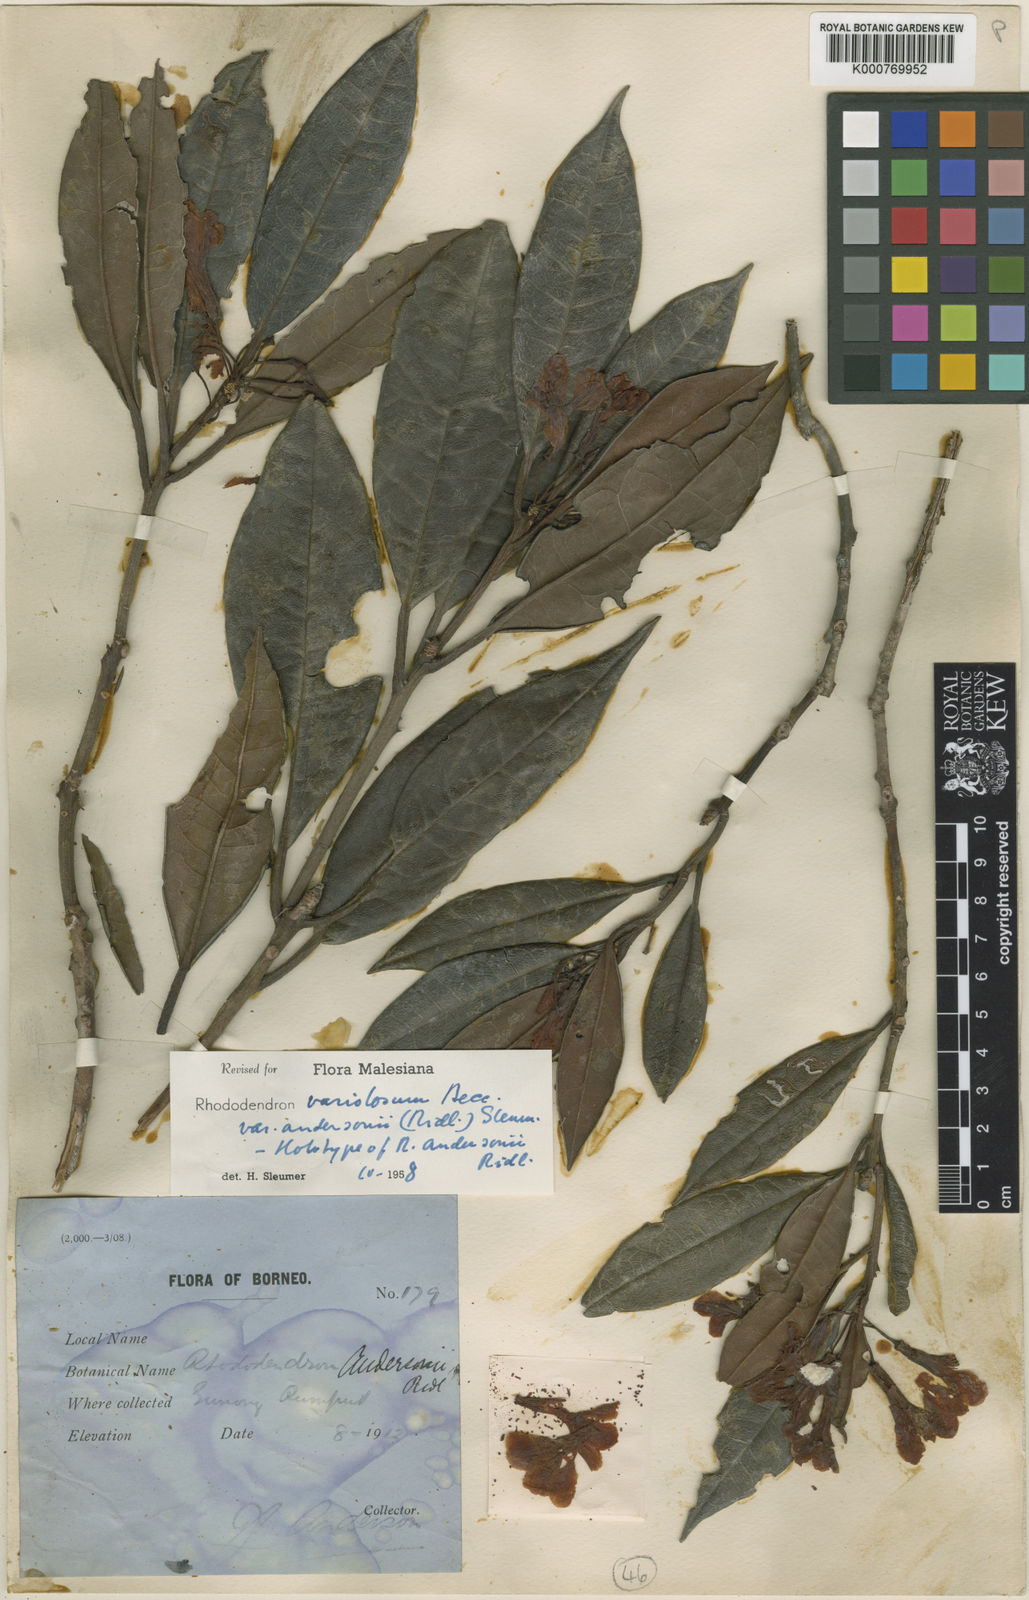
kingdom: Plantae
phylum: Tracheophyta
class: Magnoliopsida
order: Ericales
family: Ericaceae
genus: Rhododendron
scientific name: Rhododendron variolosum
